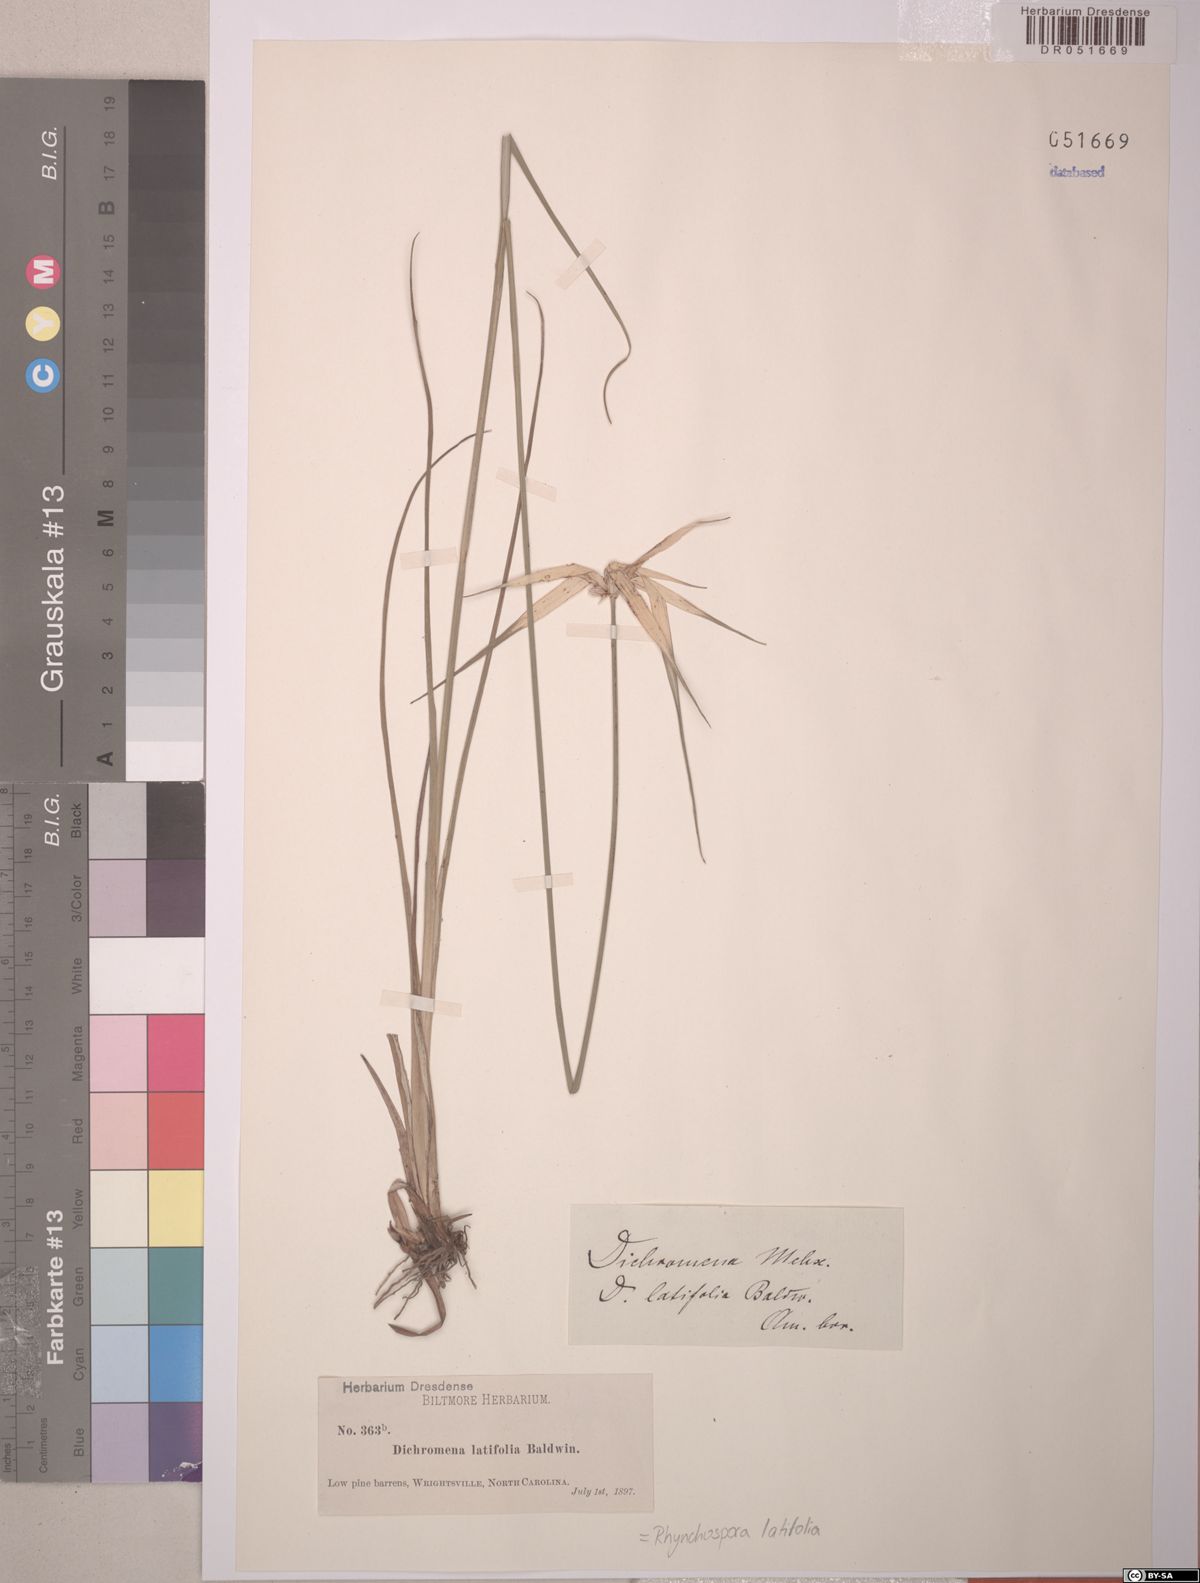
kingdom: Plantae
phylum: Tracheophyta
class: Liliopsida
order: Poales
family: Cyperaceae
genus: Rhynchospora
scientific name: Rhynchospora latifolia
